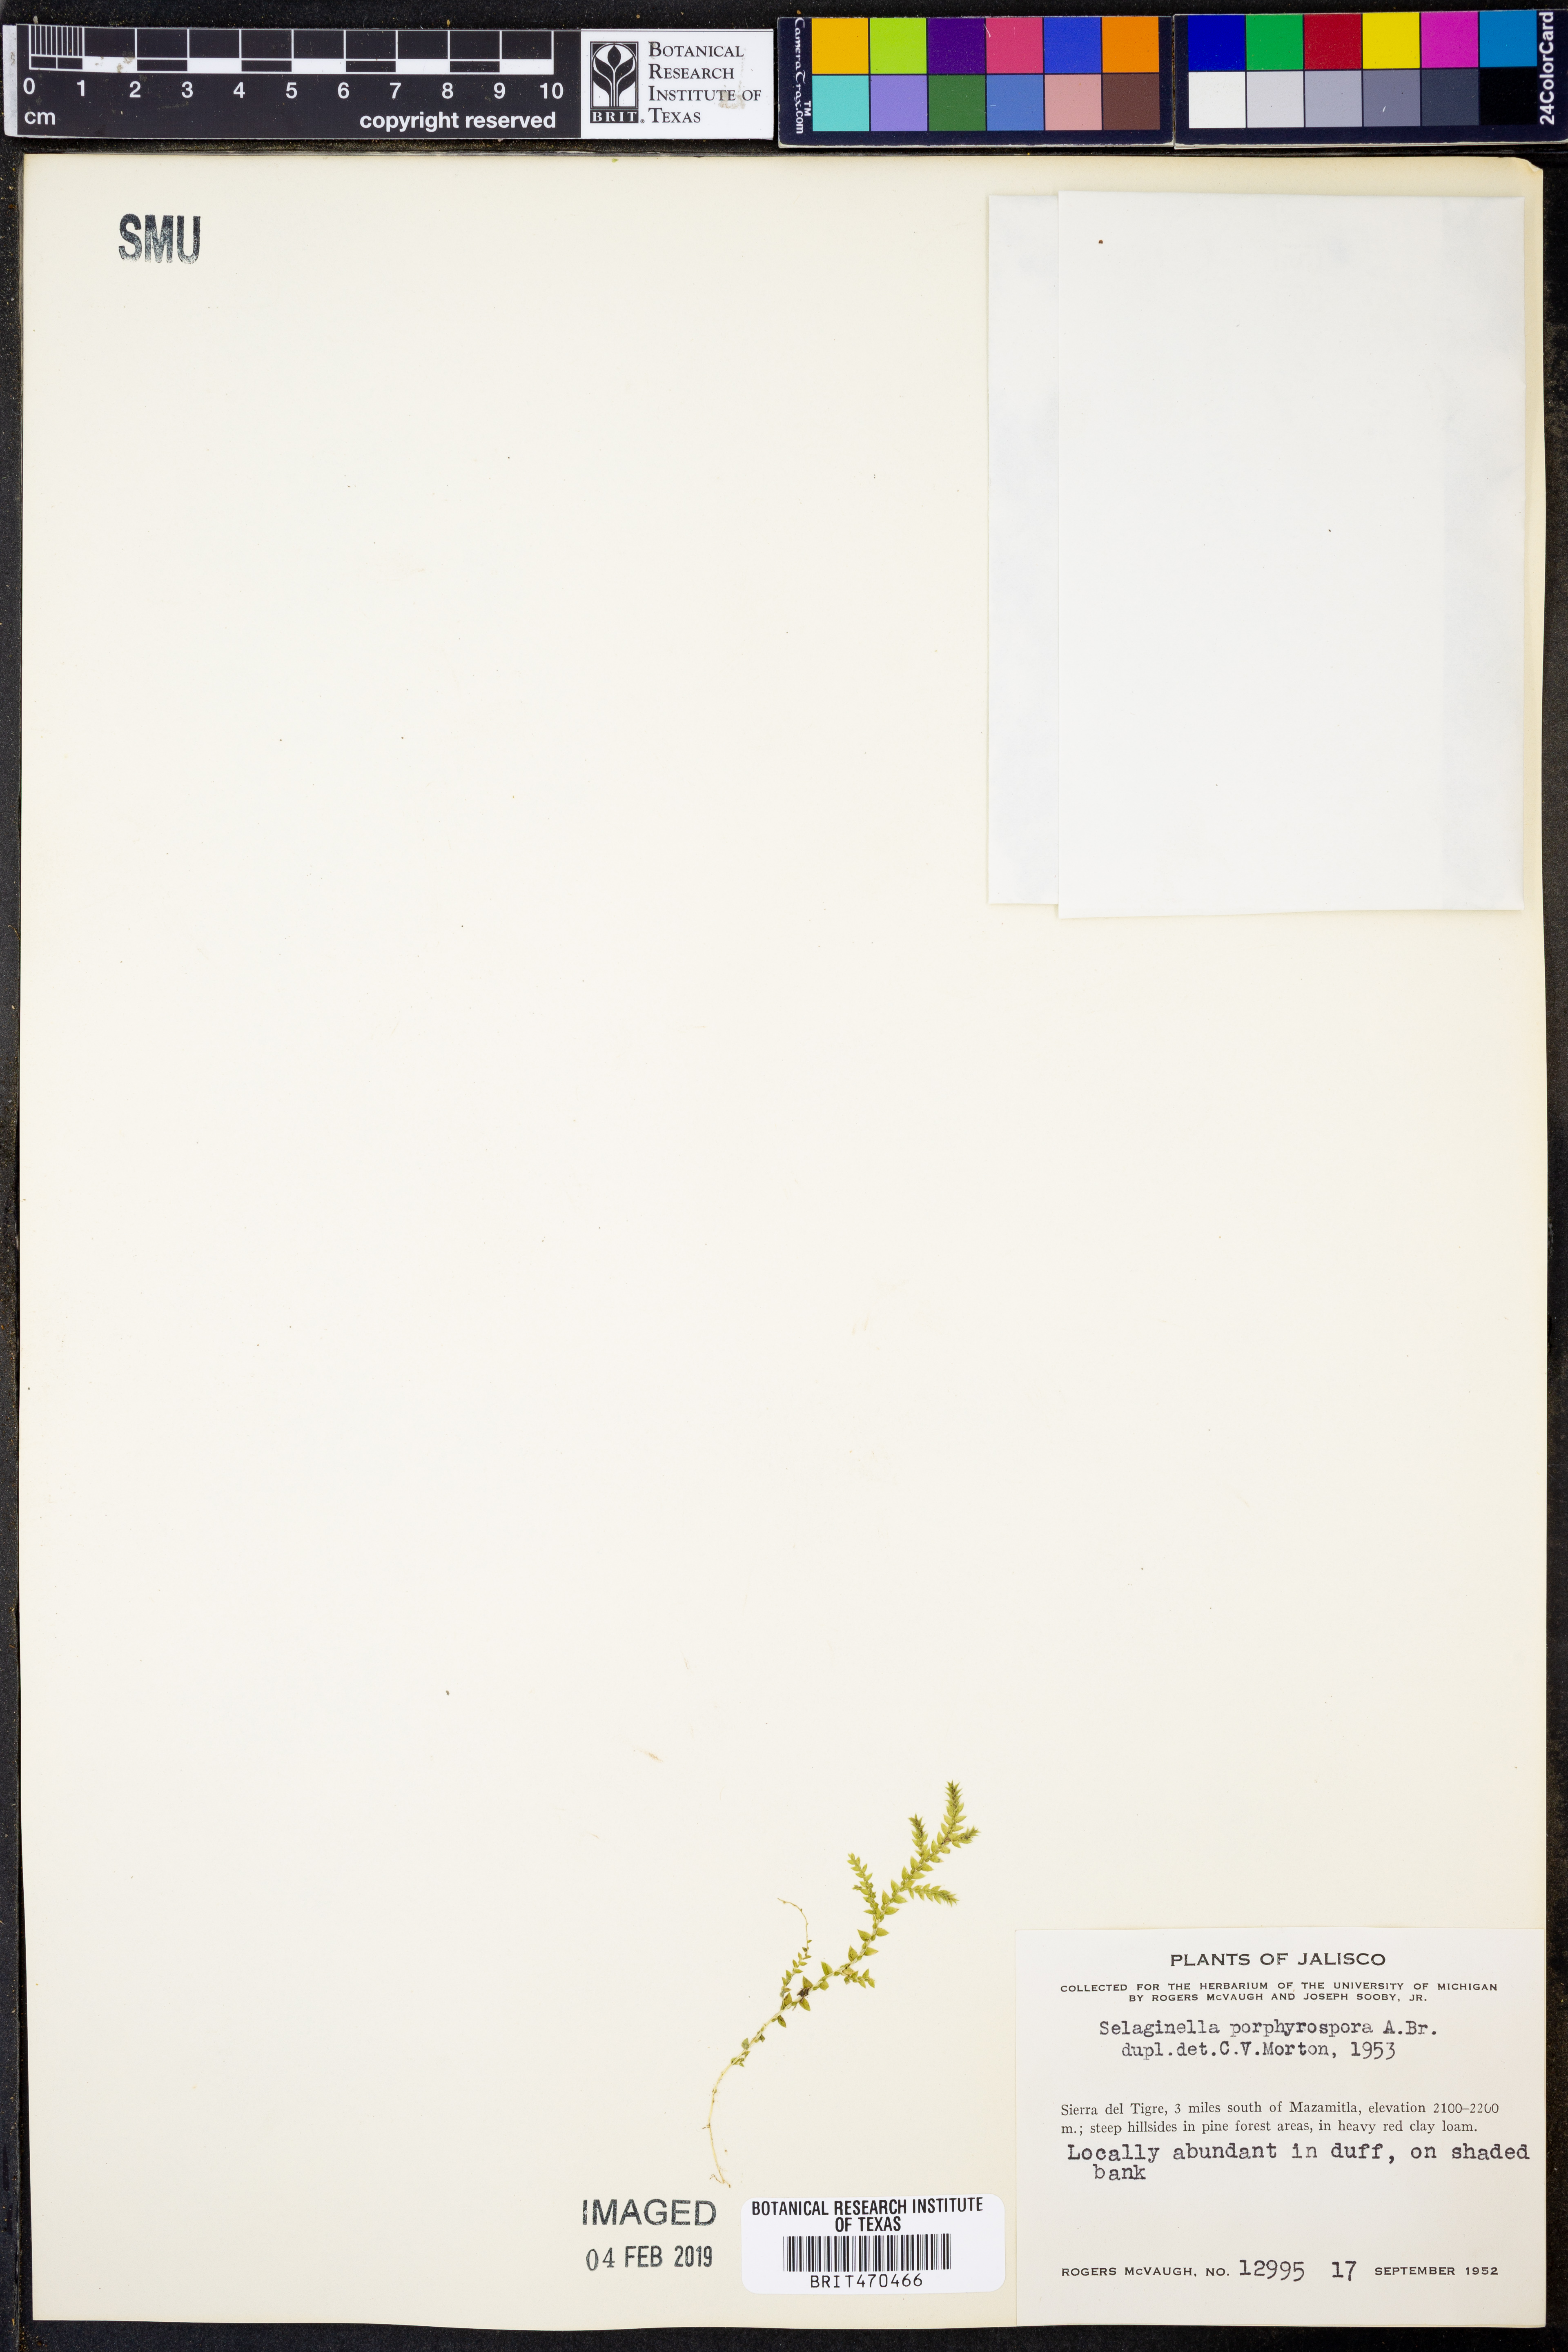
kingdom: Plantae
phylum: Tracheophyta
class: Lycopodiopsida
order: Selaginellales
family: Selaginellaceae
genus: Selaginella
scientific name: Selaginella porphyrospora
